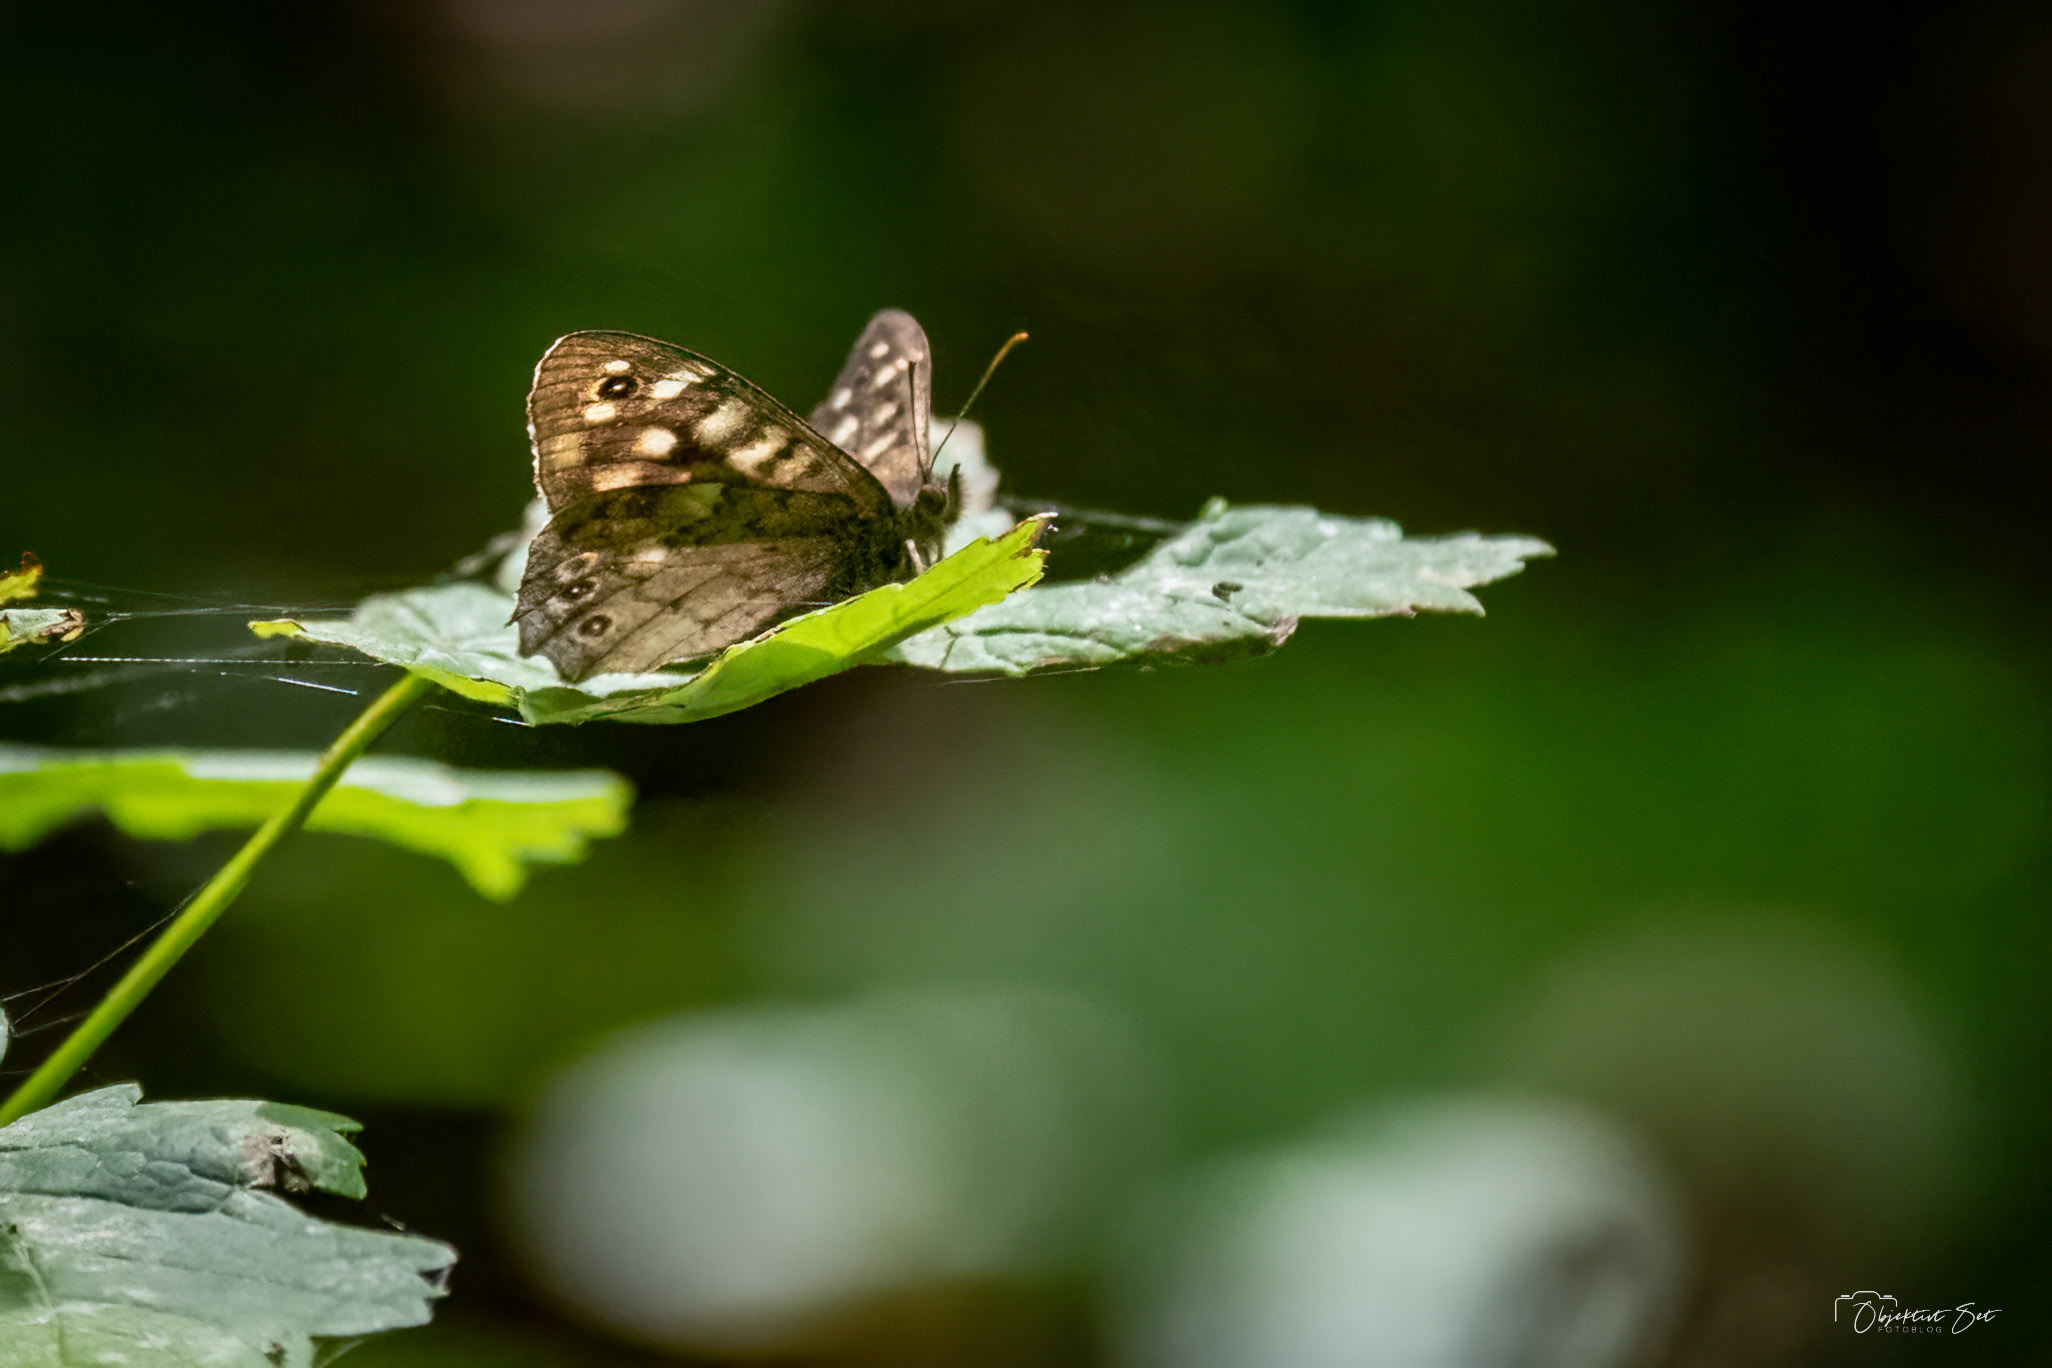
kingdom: Animalia
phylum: Arthropoda
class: Insecta
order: Lepidoptera
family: Nymphalidae
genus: Pararge
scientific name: Pararge aegeria
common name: Skovrandøje
